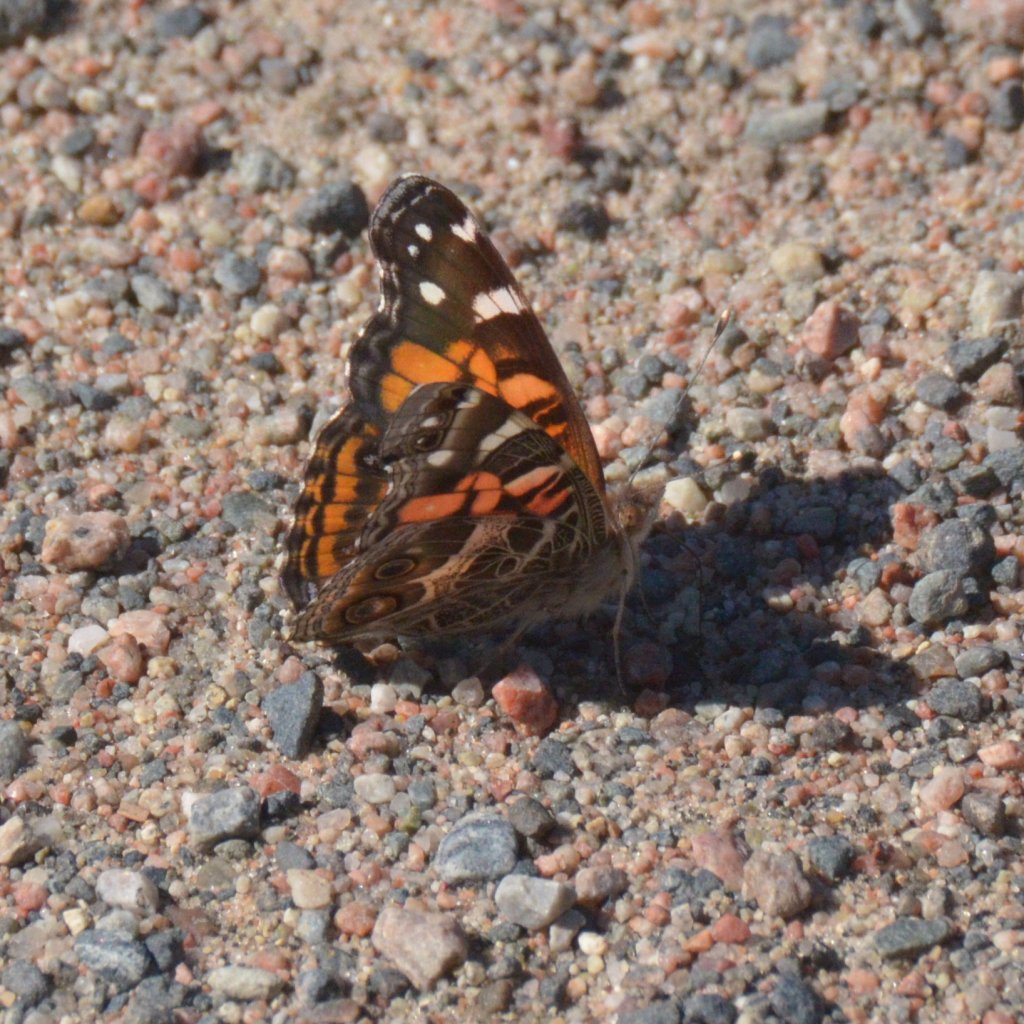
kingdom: Animalia
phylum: Arthropoda
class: Insecta
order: Lepidoptera
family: Nymphalidae
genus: Vanessa
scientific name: Vanessa virginiensis
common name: American Lady
